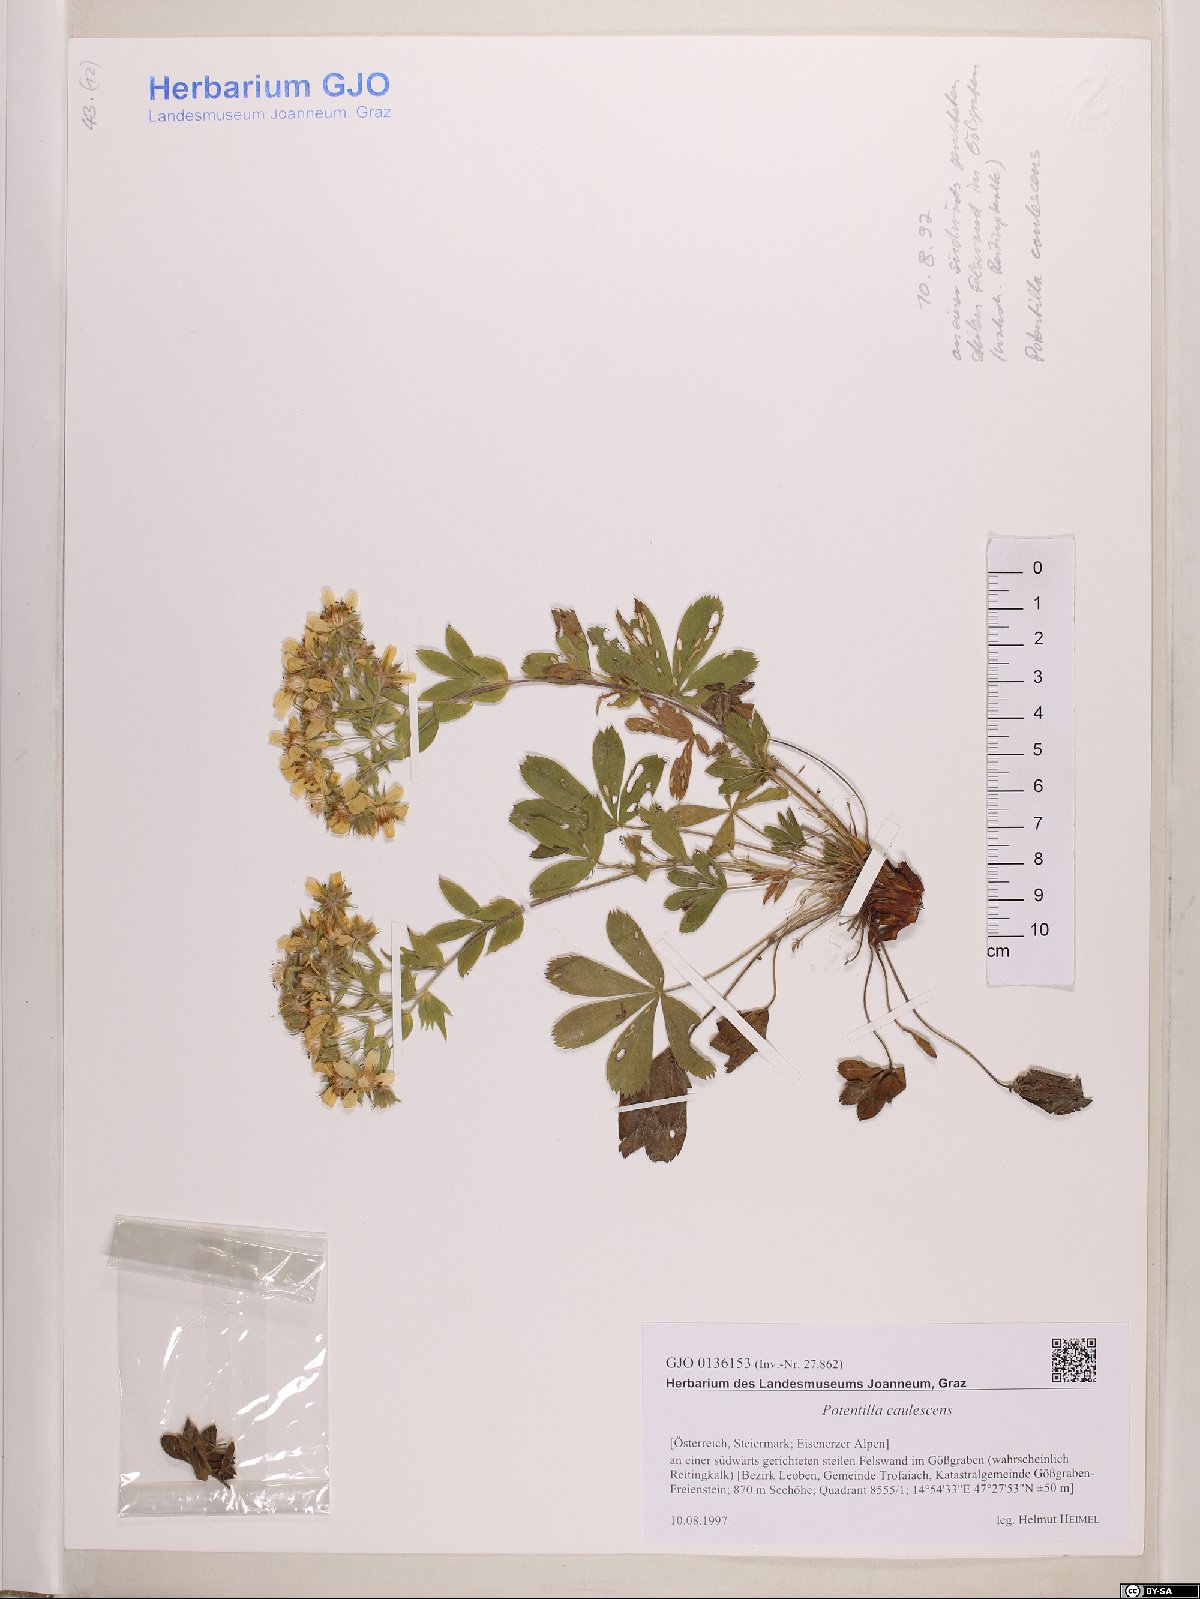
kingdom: Plantae
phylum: Tracheophyta
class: Magnoliopsida
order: Rosales
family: Rosaceae
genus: Potentilla
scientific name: Potentilla caulescens
